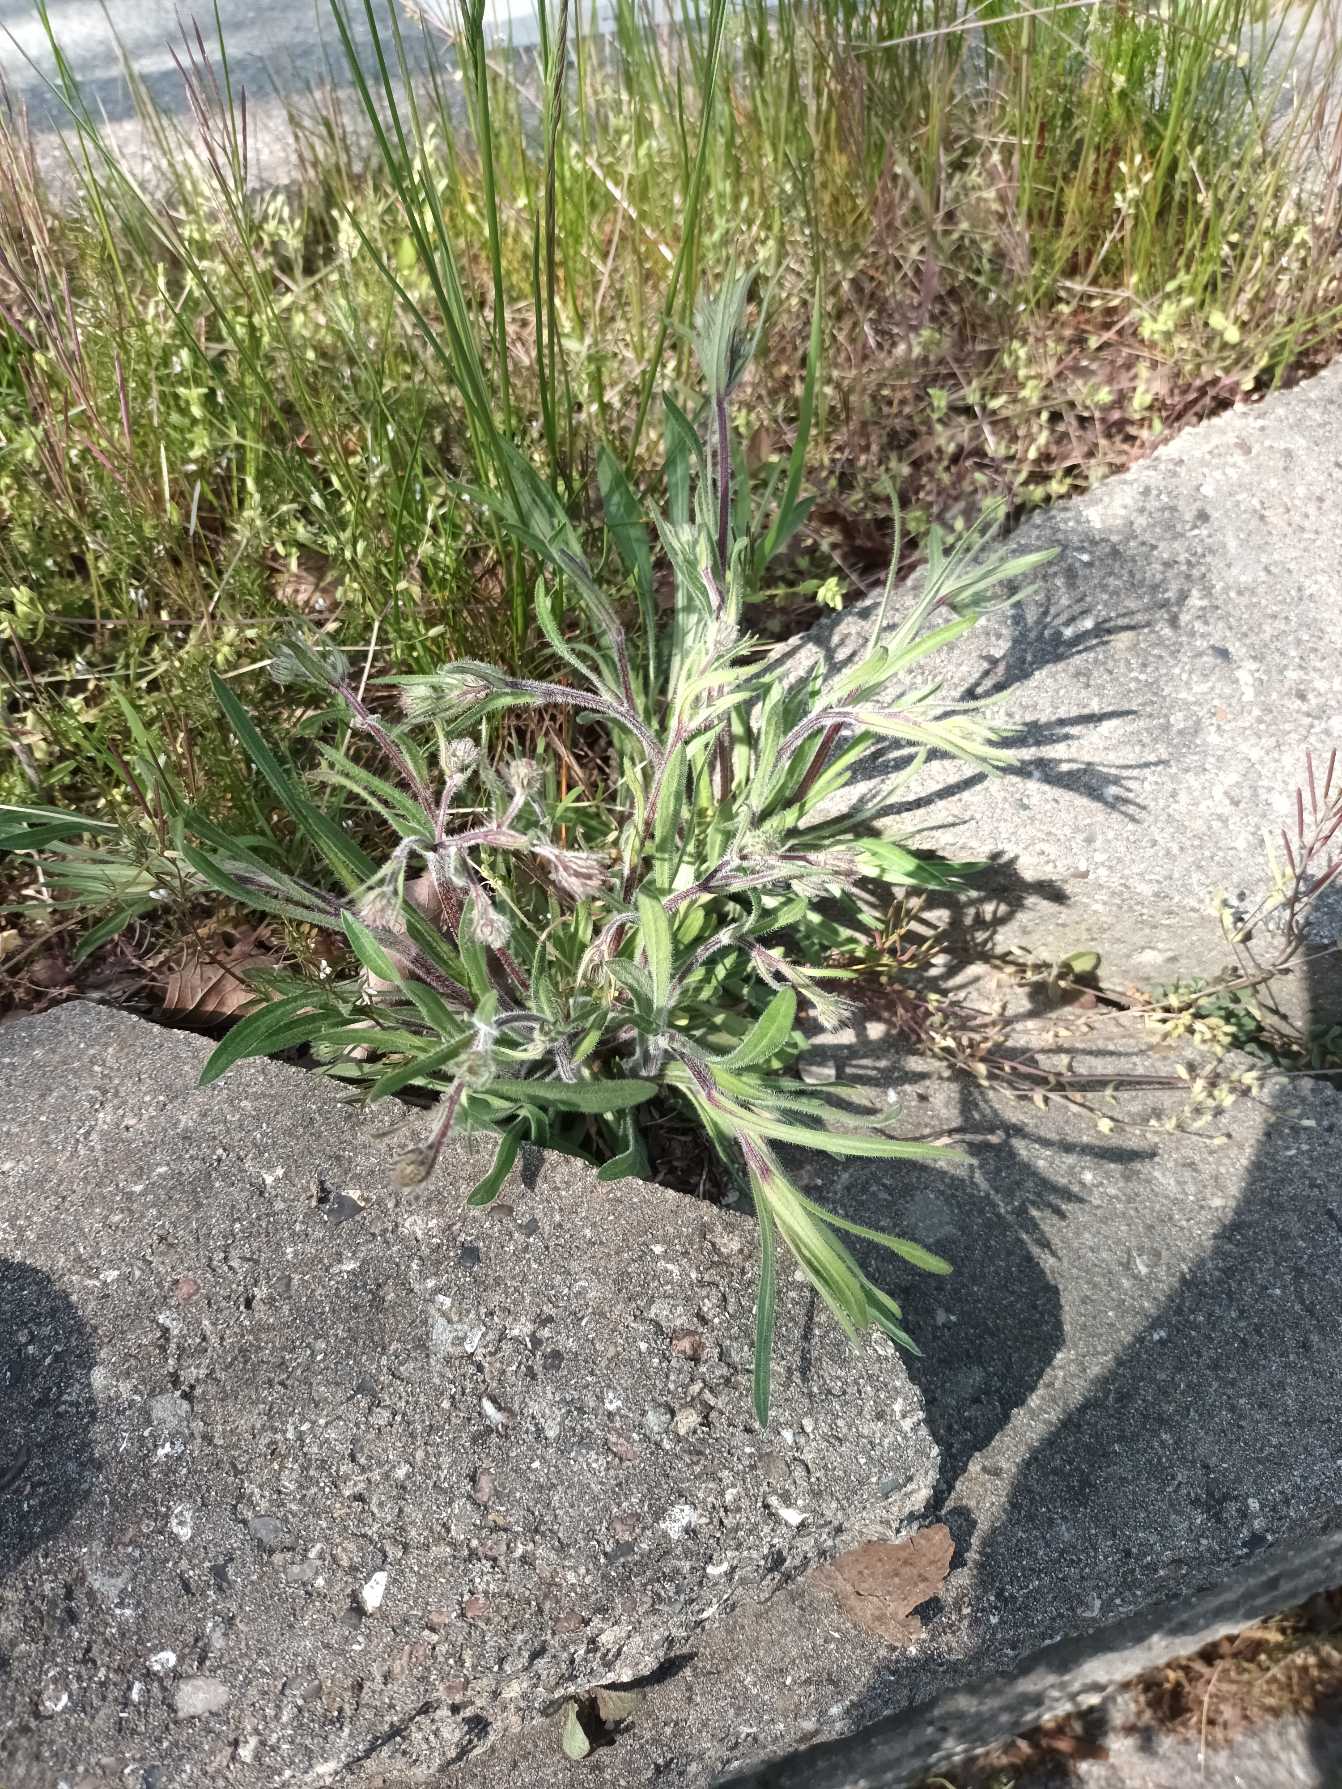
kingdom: Plantae
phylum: Tracheophyta
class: Magnoliopsida
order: Asterales
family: Asteraceae
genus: Erigeron
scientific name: Erigeron acris
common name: Bitter bakkestjerne
